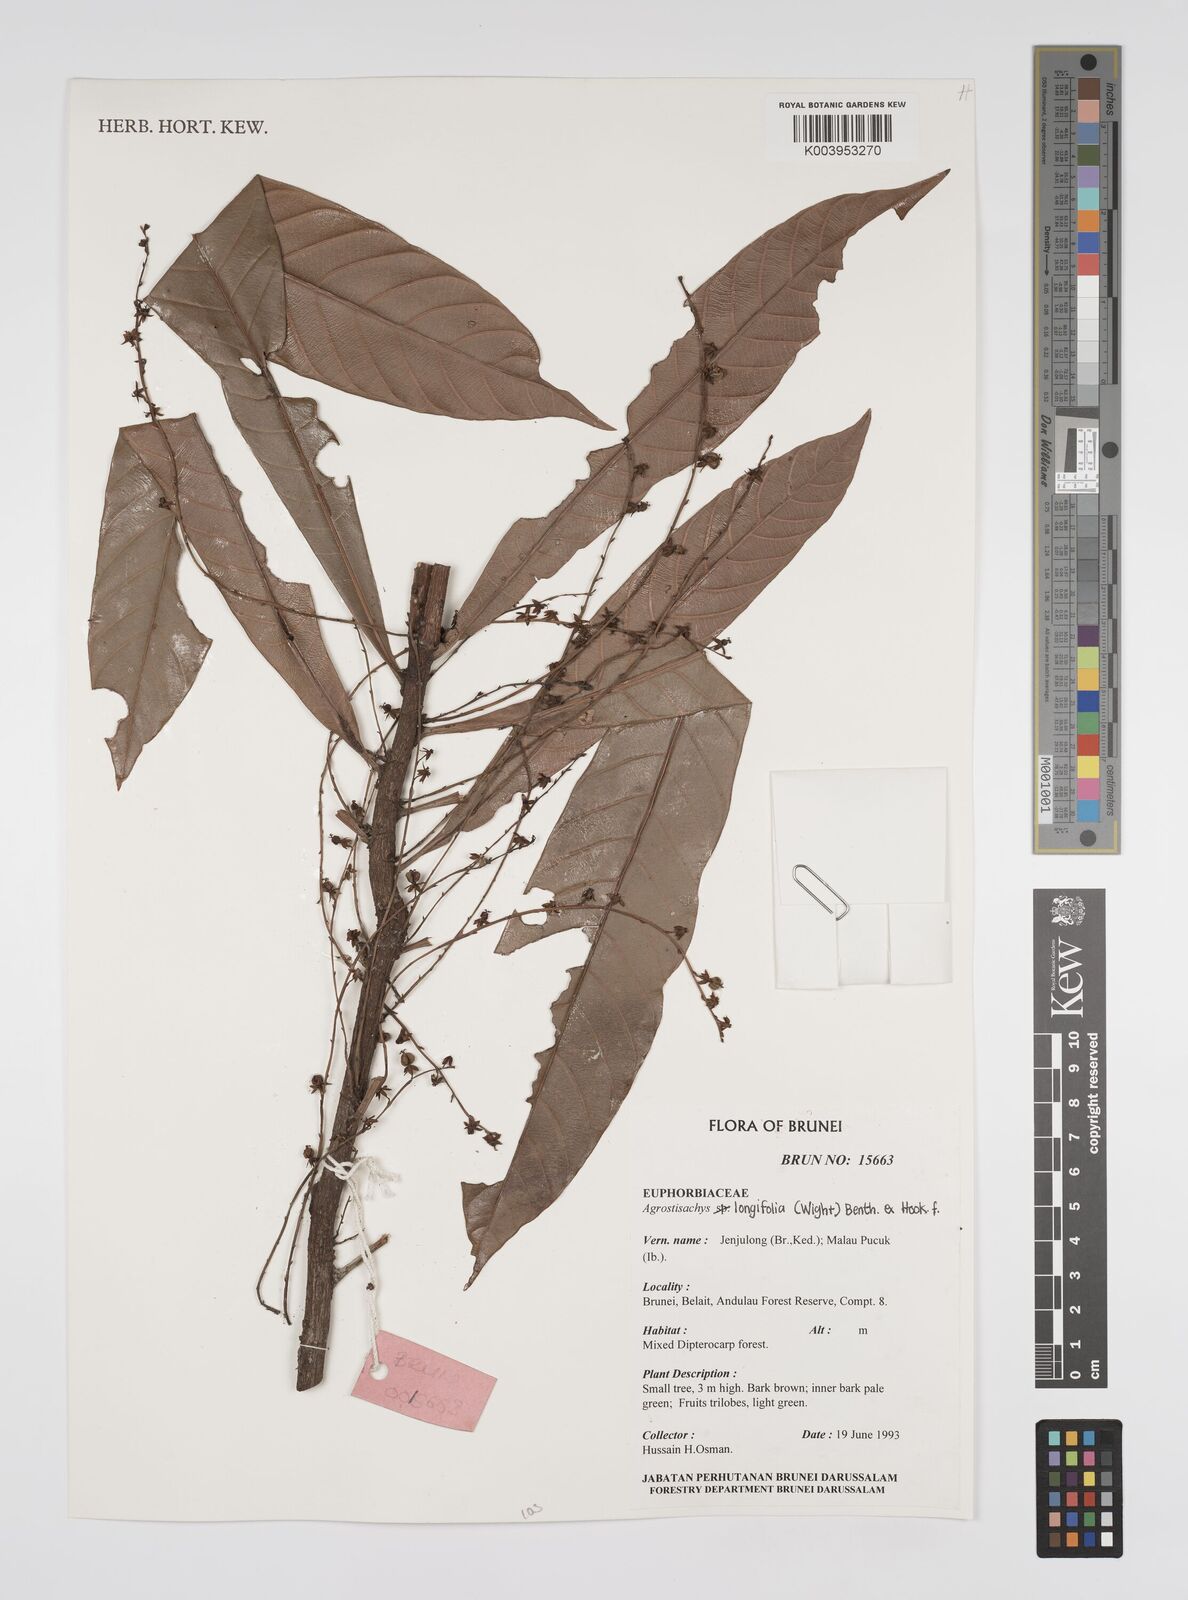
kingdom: Plantae
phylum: Tracheophyta
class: Magnoliopsida
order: Malpighiales
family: Euphorbiaceae
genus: Agrostistachys
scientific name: Agrostistachys borneensis
